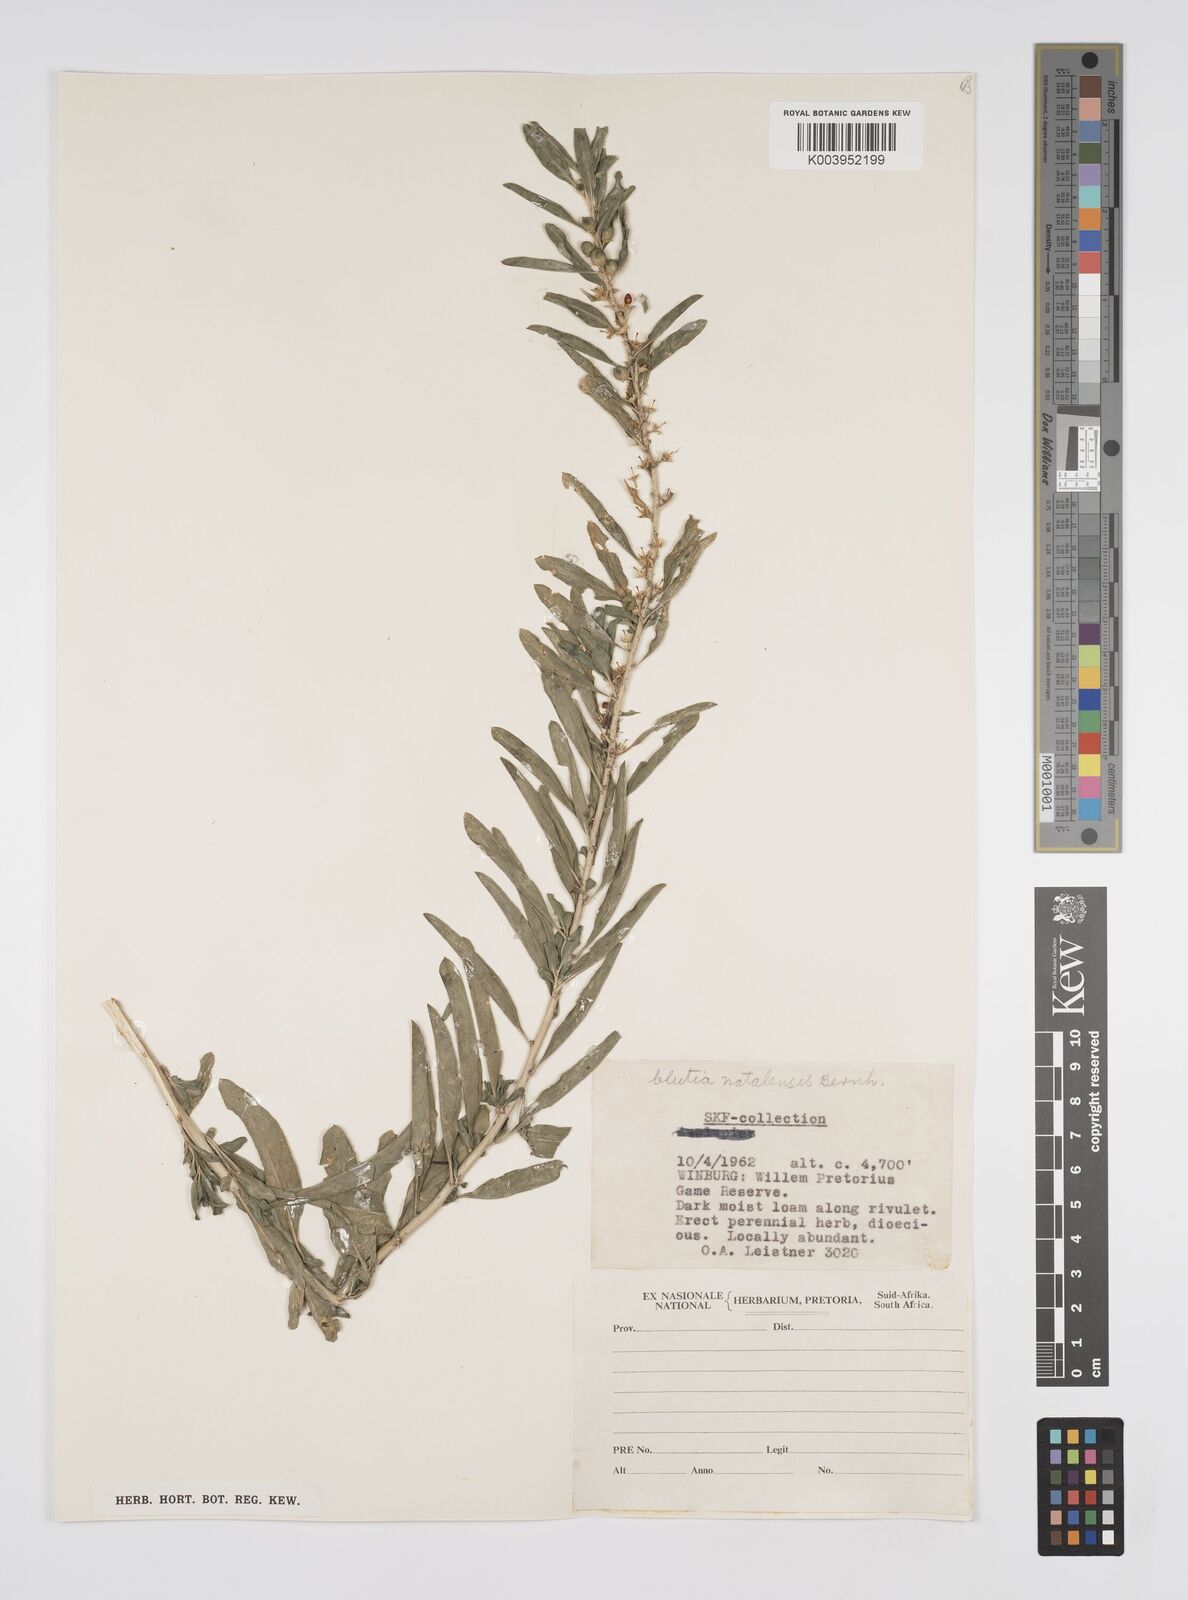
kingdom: Plantae
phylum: Tracheophyta
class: Magnoliopsida
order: Malpighiales
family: Peraceae
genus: Clutia
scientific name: Clutia natalensis
